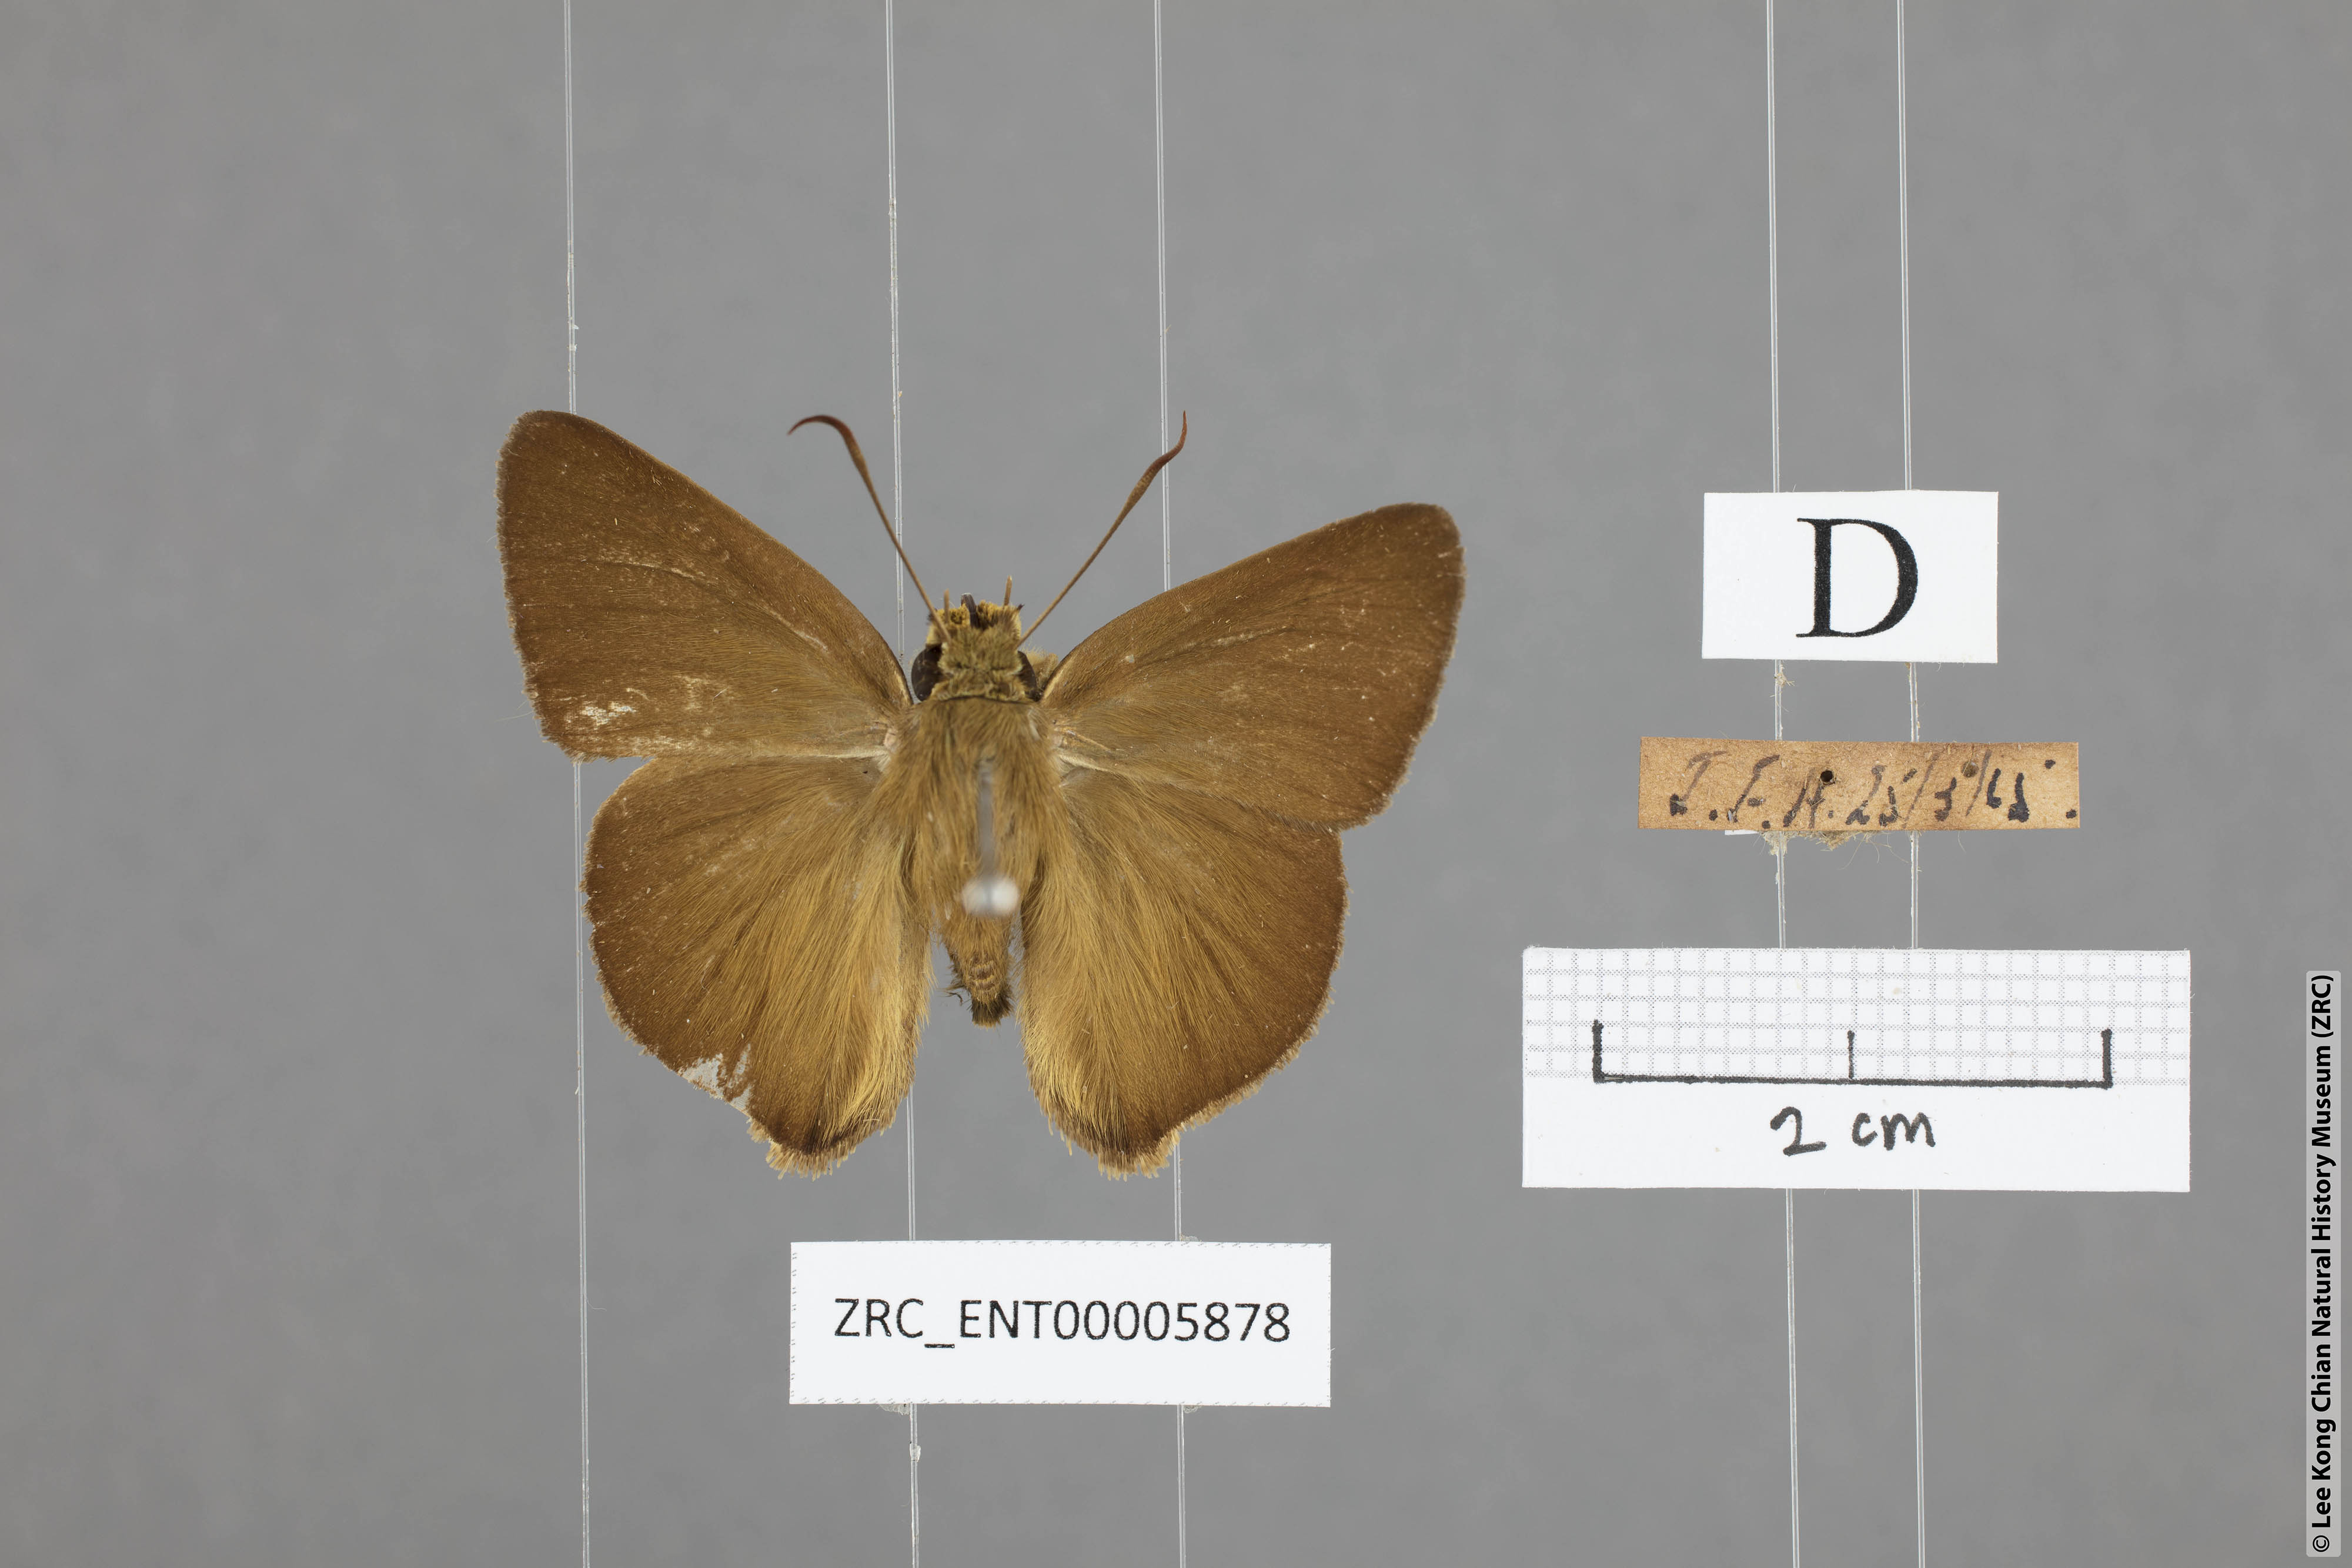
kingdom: Animalia
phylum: Arthropoda
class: Insecta
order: Lepidoptera
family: Hesperiidae
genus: Hasora
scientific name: Hasora mus
